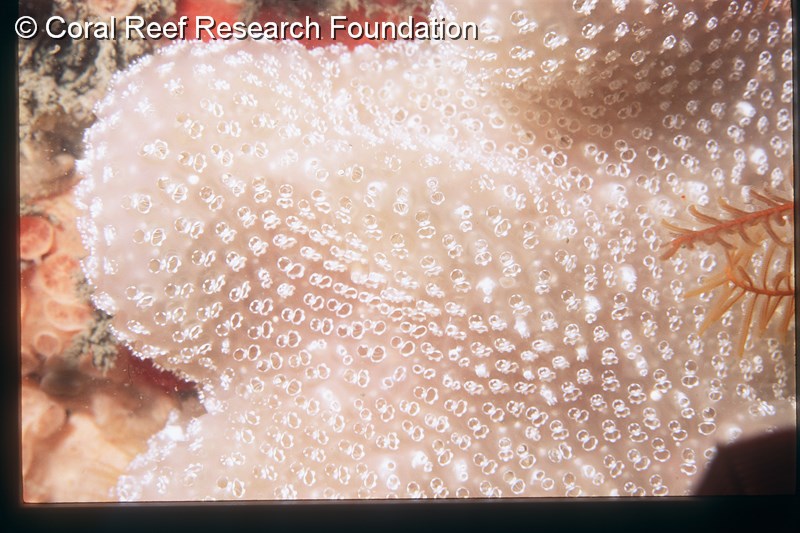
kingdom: Animalia
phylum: Chordata
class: Ascidiacea
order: Aplousobranchia
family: Polycitoridae
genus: Eudistoma
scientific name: Eudistoma
